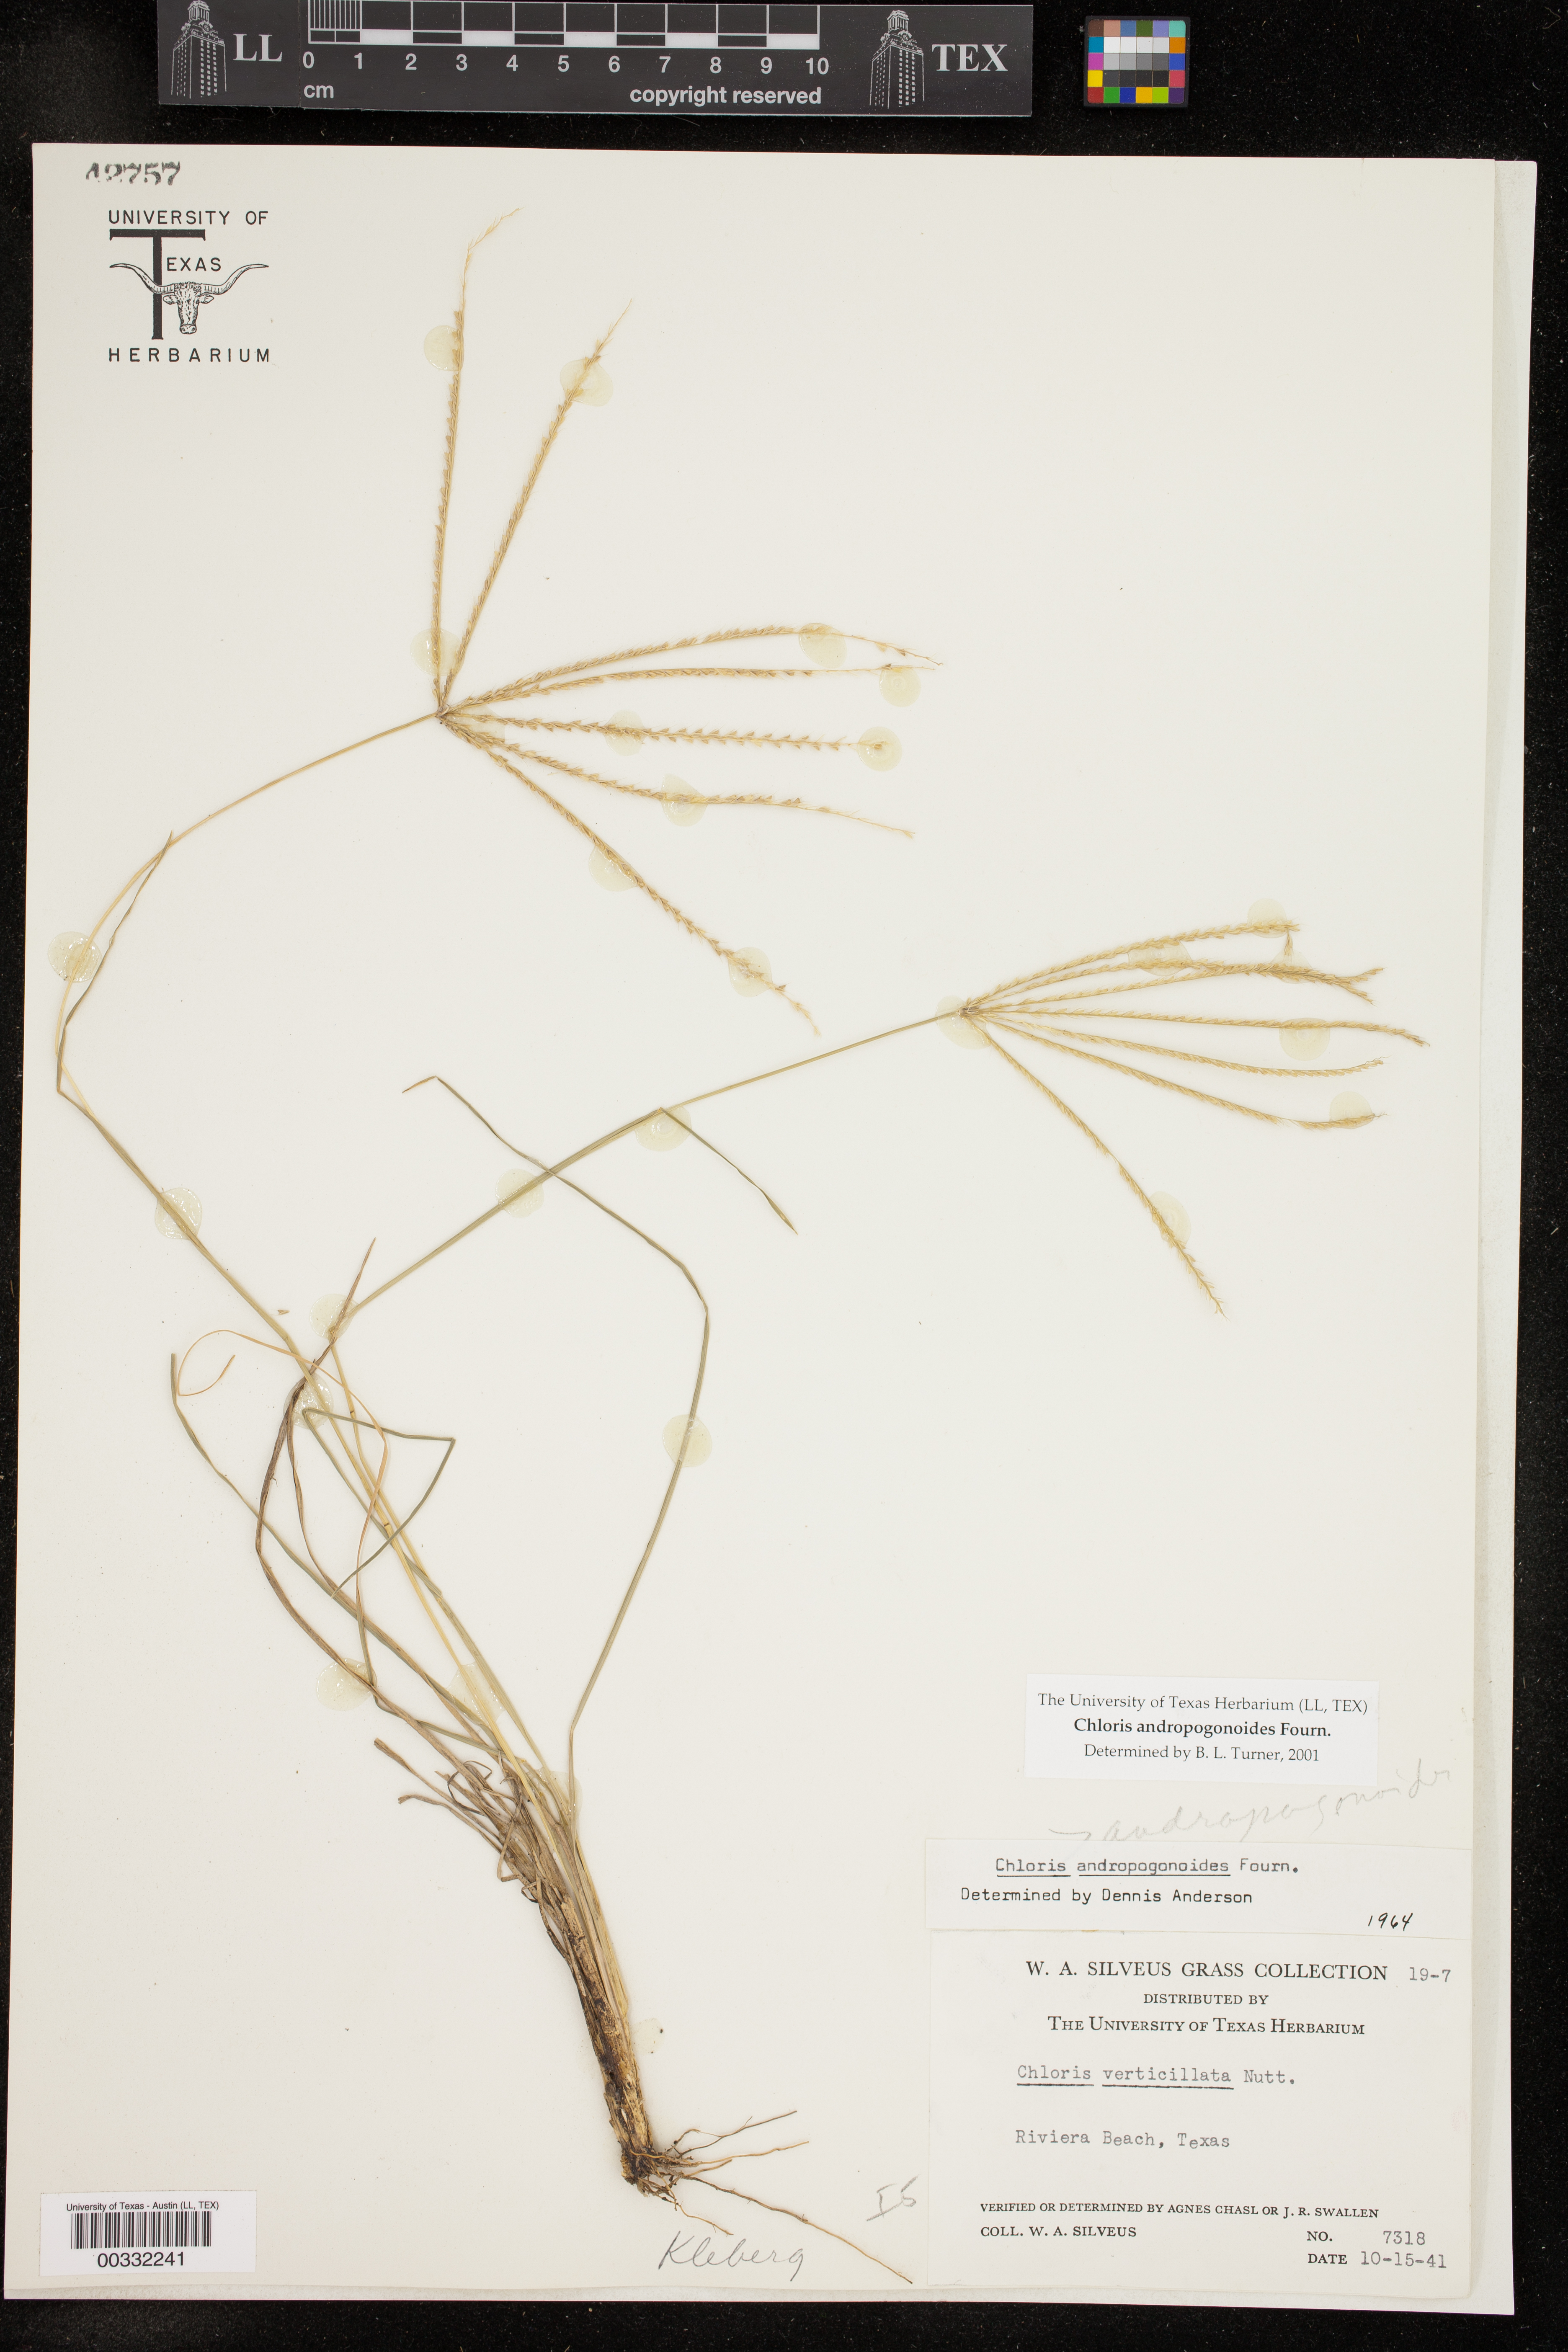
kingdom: Plantae
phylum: Tracheophyta
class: Liliopsida
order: Poales
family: Poaceae
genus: Chloris
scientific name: Chloris andropogonoides
